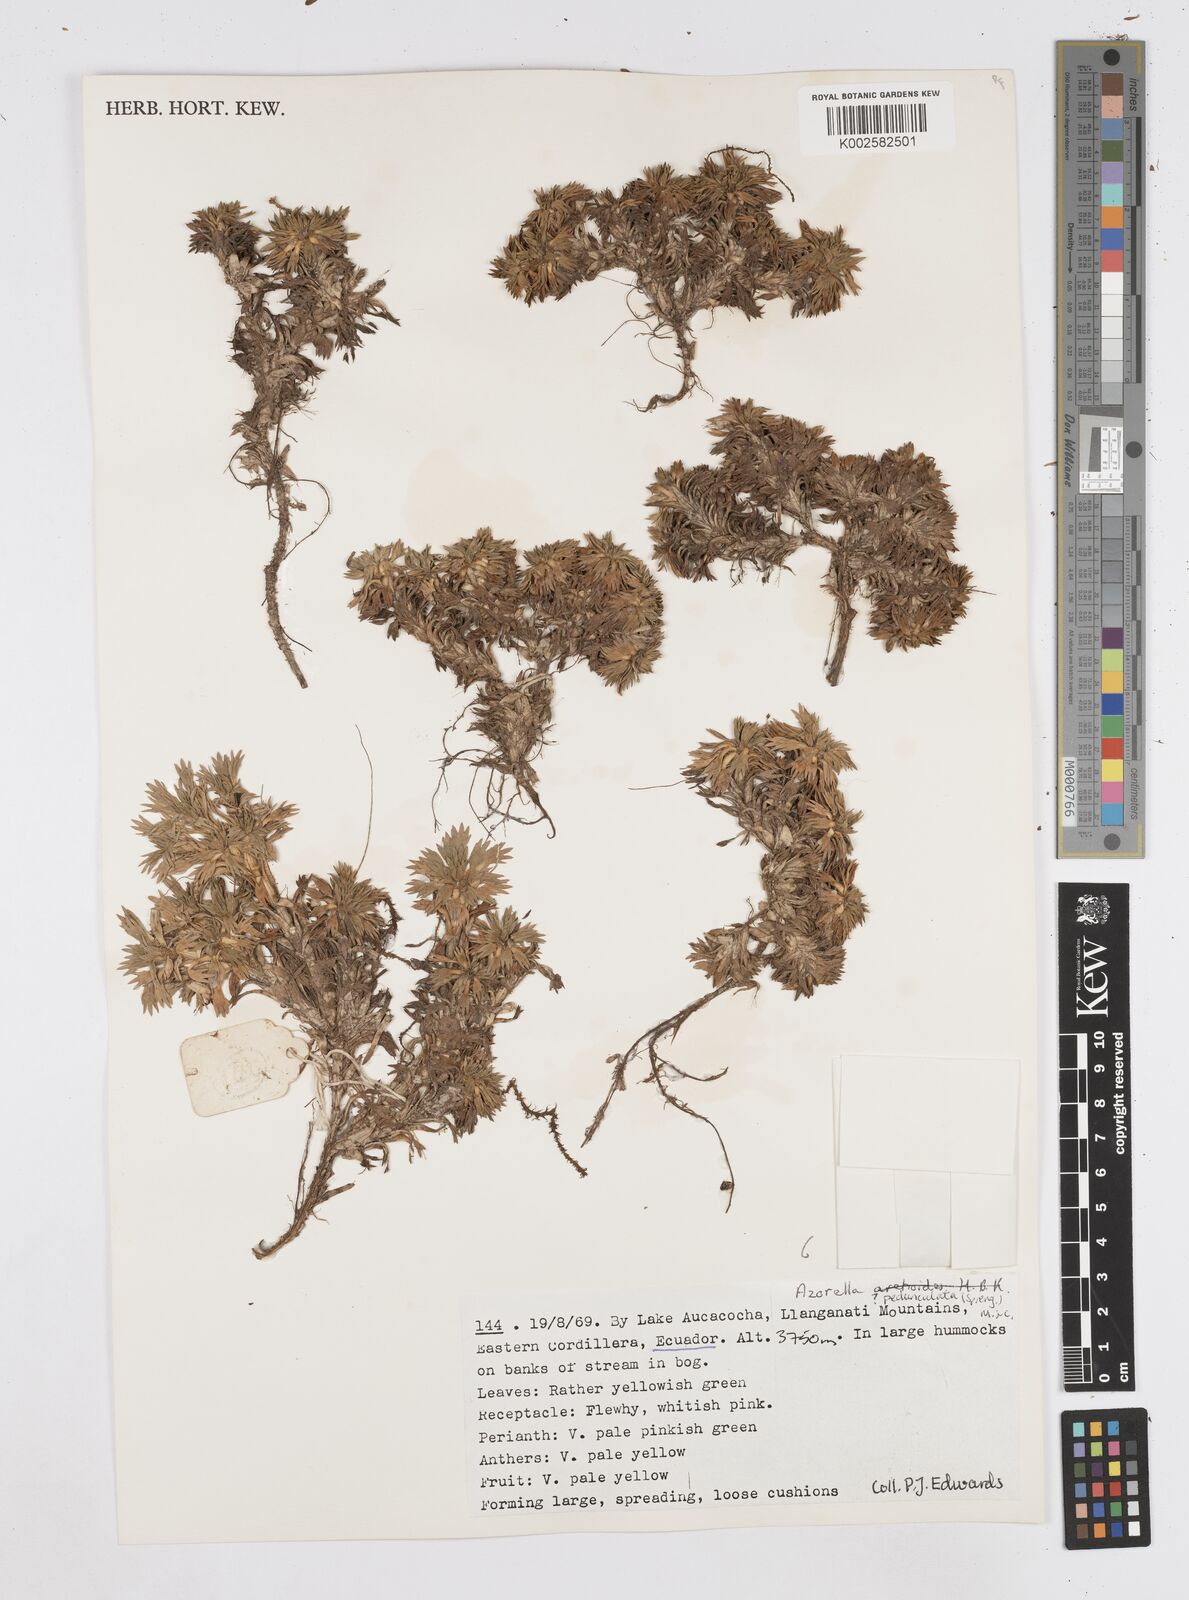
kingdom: Plantae
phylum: Tracheophyta
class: Magnoliopsida
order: Apiales
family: Apiaceae
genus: Azorella
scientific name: Azorella aretioides
